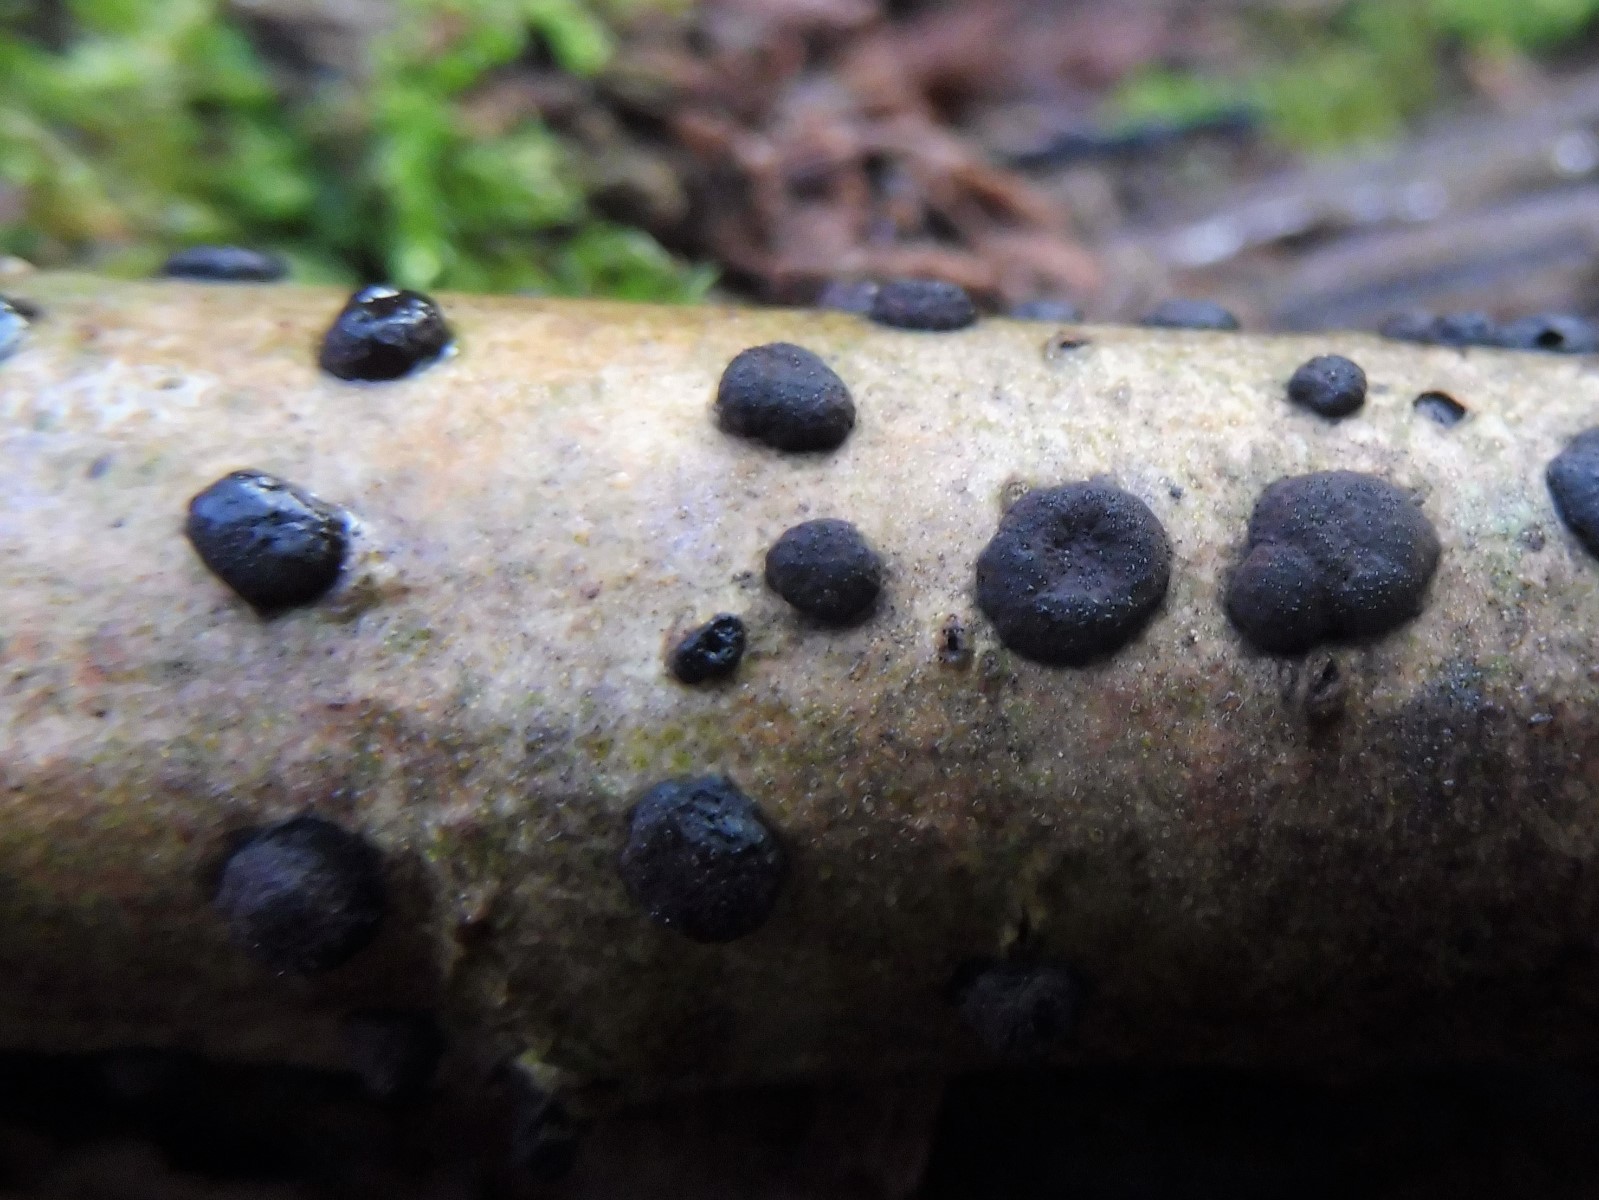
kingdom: Fungi
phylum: Ascomycota
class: Sordariomycetes
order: Xylariales
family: Hypoxylaceae
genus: Hypoxylon
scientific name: Hypoxylon fuscum
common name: kegleformet kulbær
